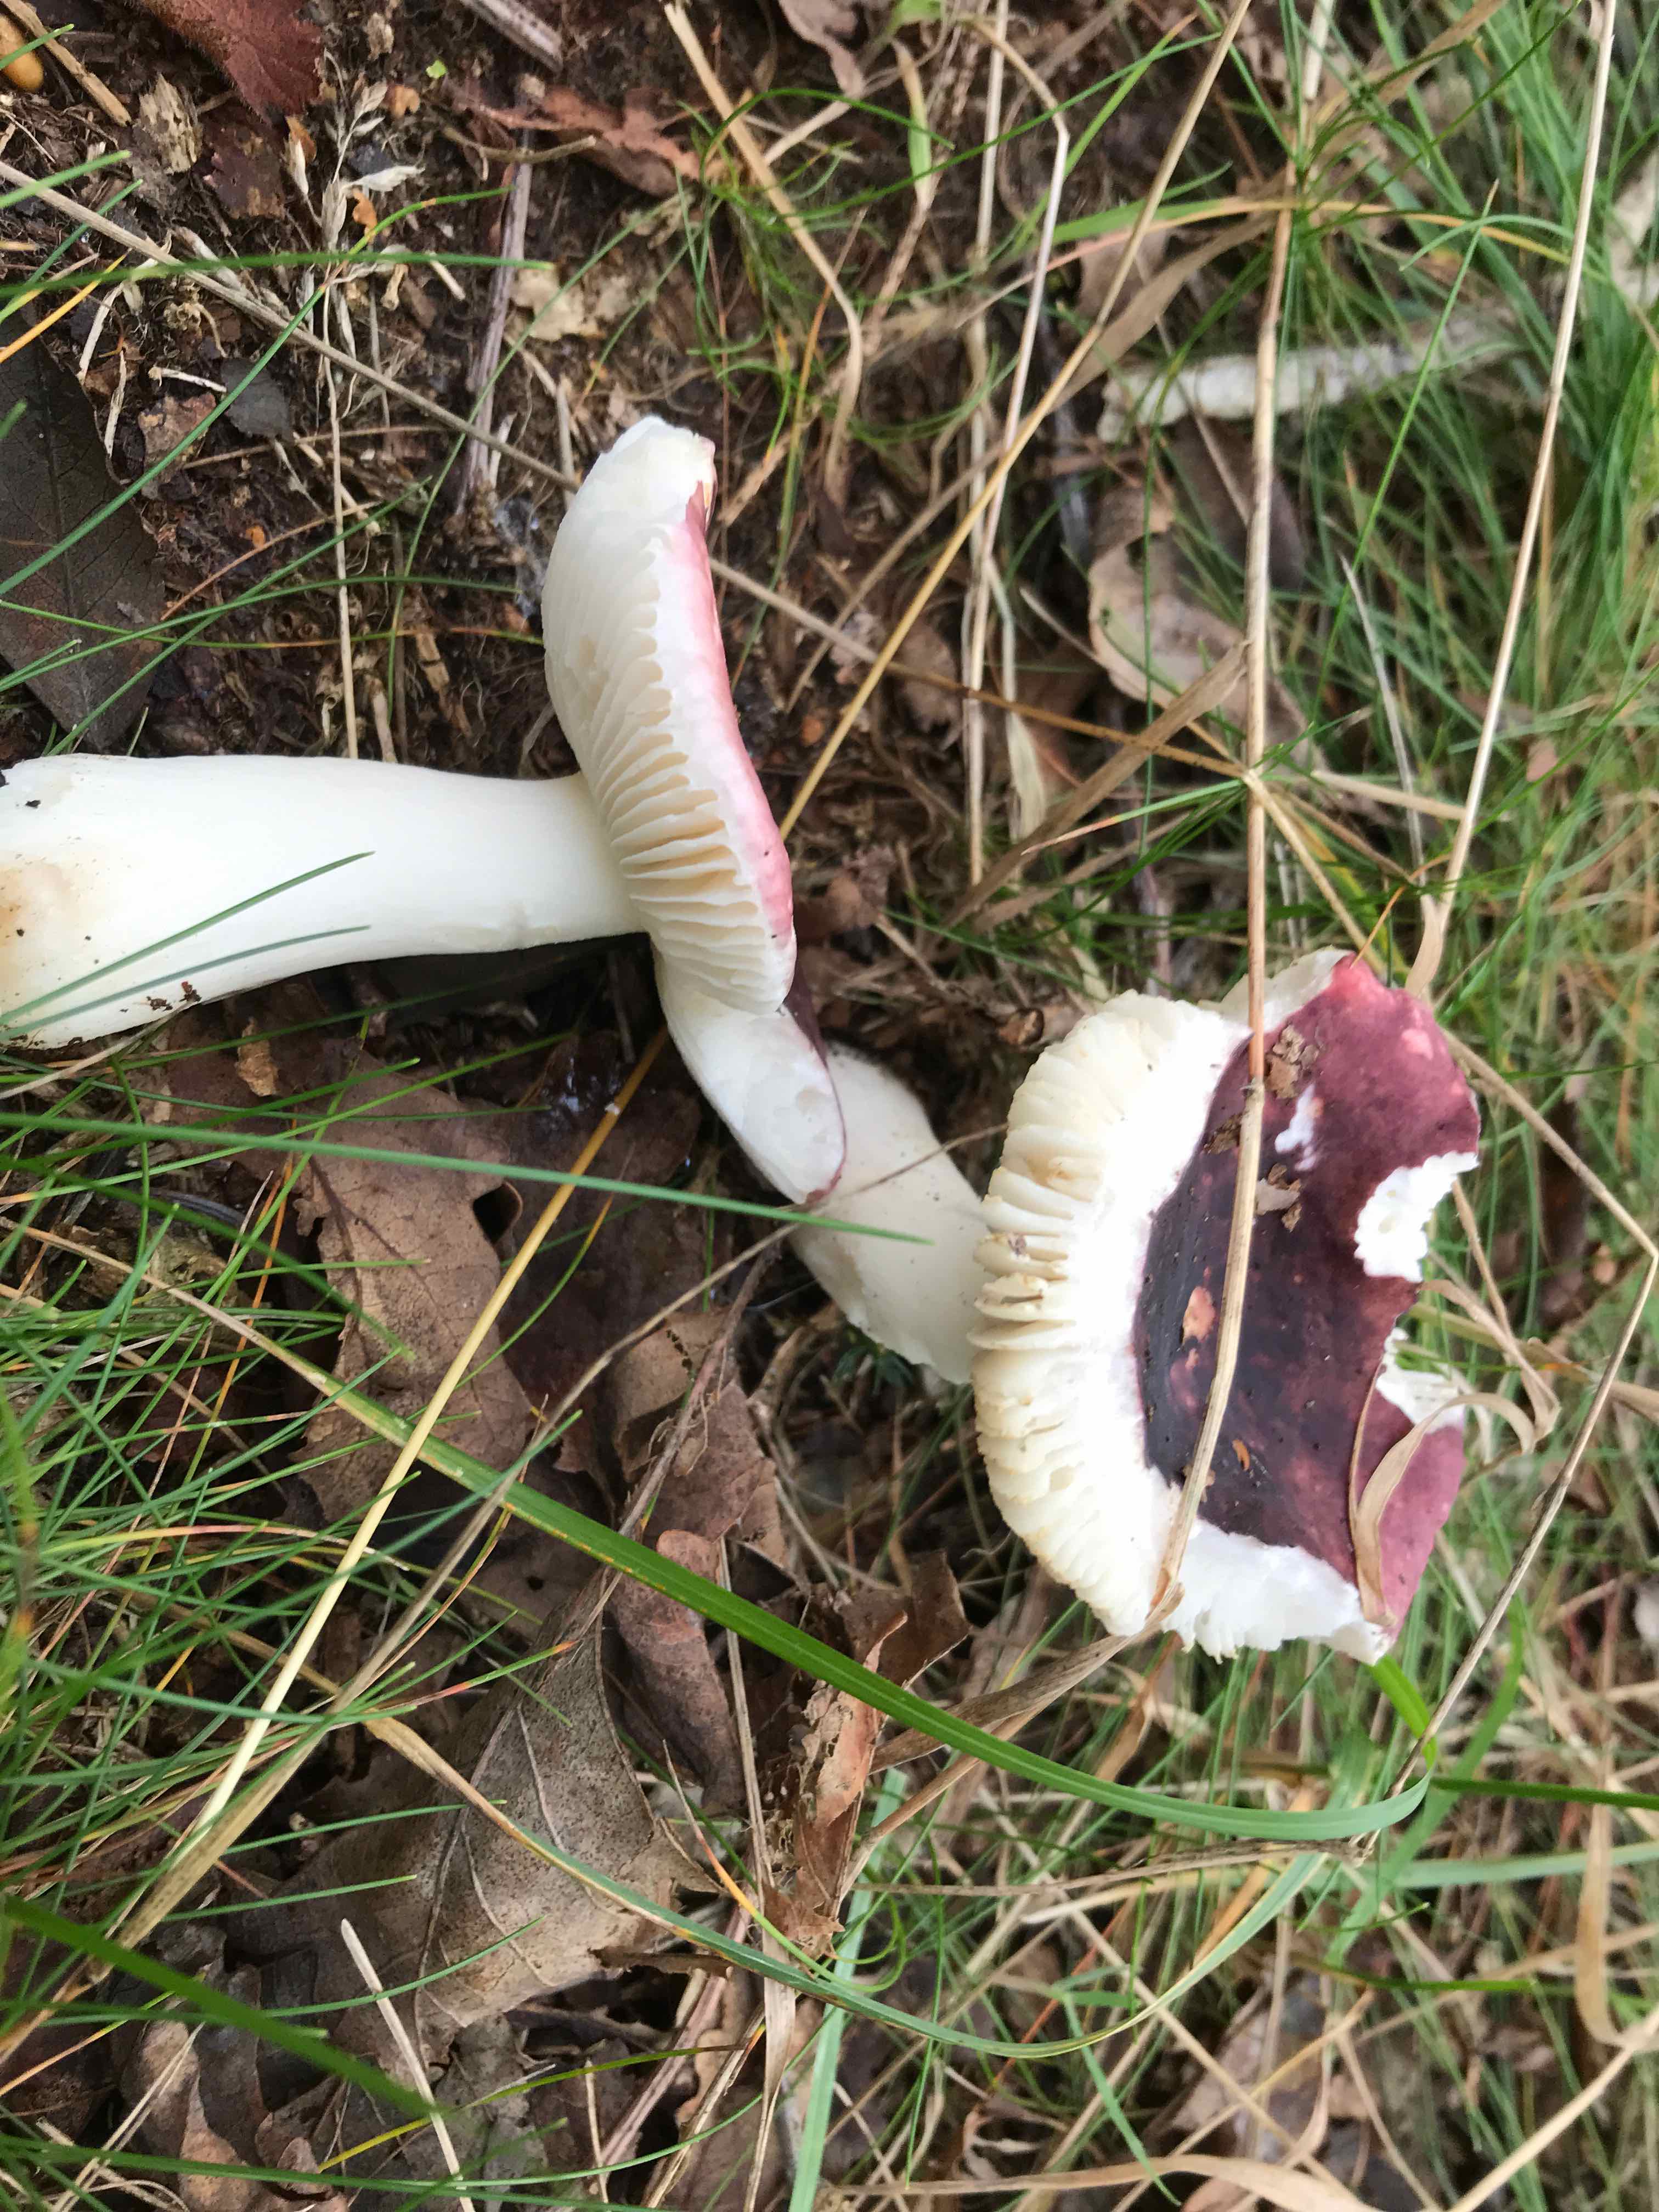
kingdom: Fungi
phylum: Basidiomycota
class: Agaricomycetes
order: Russulales
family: Russulaceae
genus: Russula
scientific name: Russula atropurpurea
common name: purpurbroget skørhat
